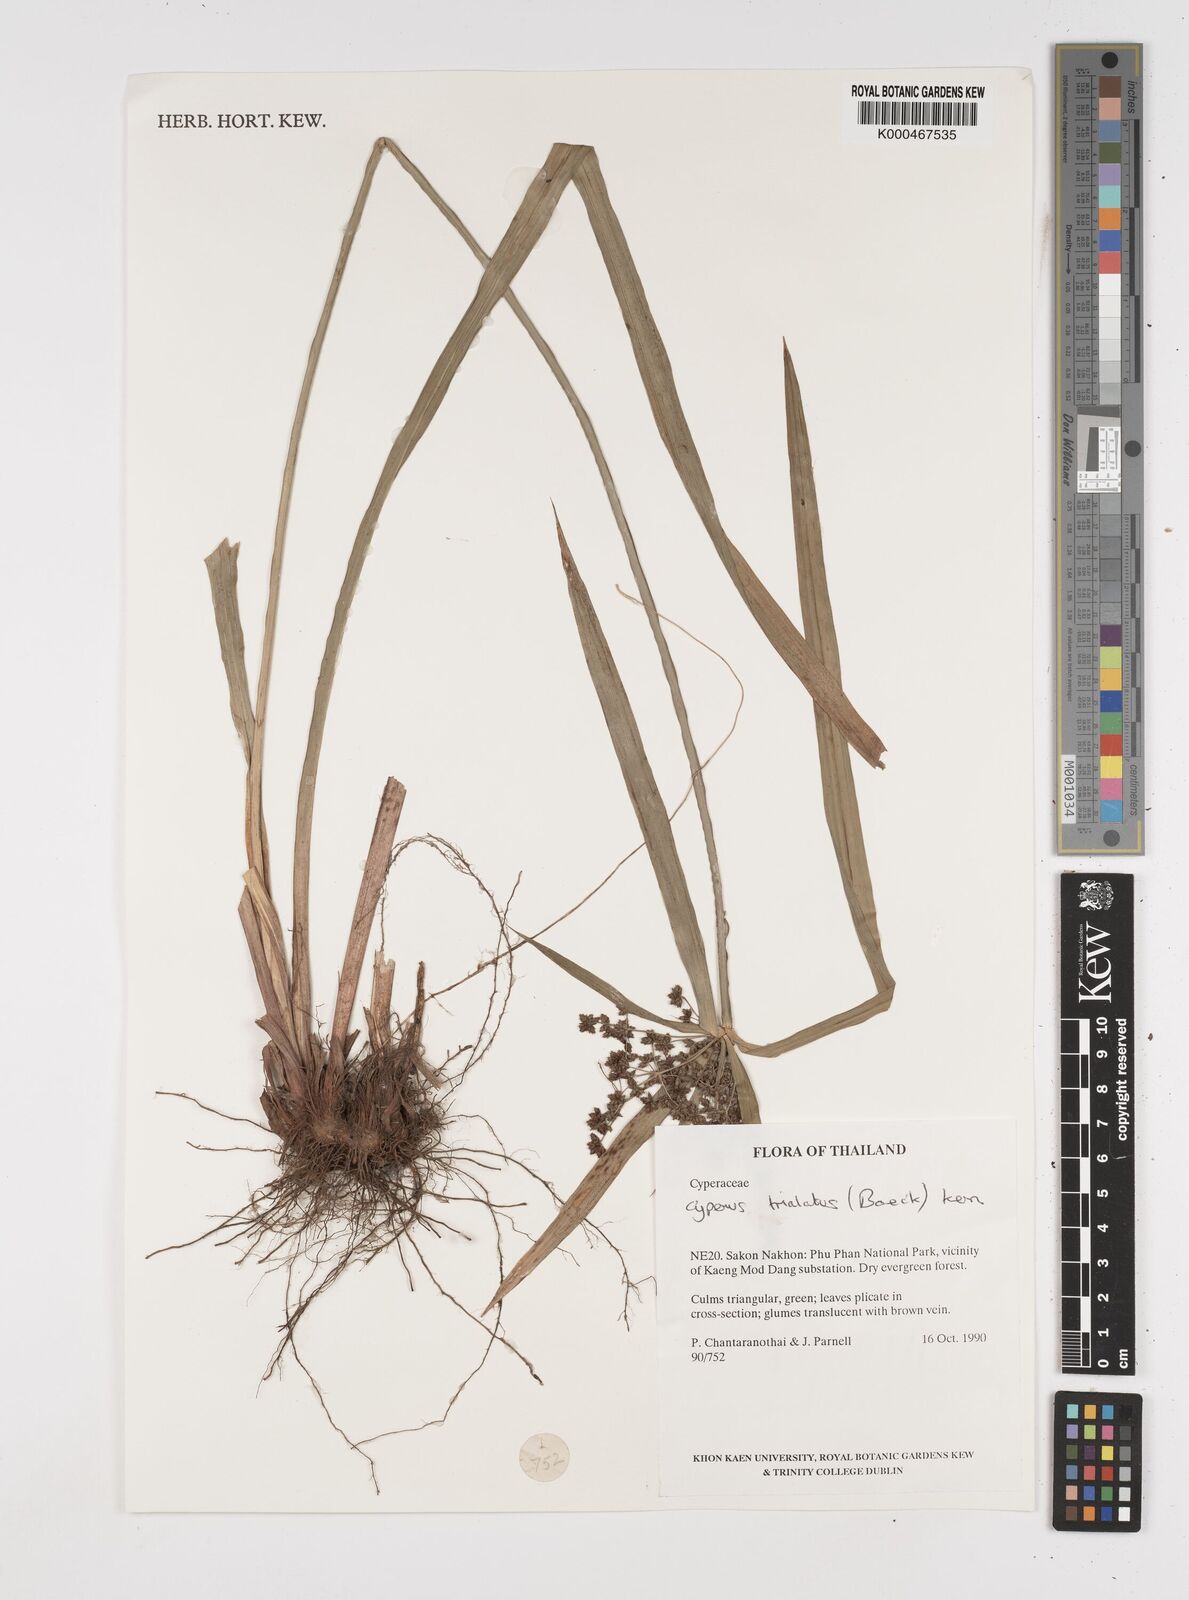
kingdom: Plantae
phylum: Tracheophyta
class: Liliopsida
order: Poales
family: Cyperaceae
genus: Cyperus
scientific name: Cyperus trialatus
